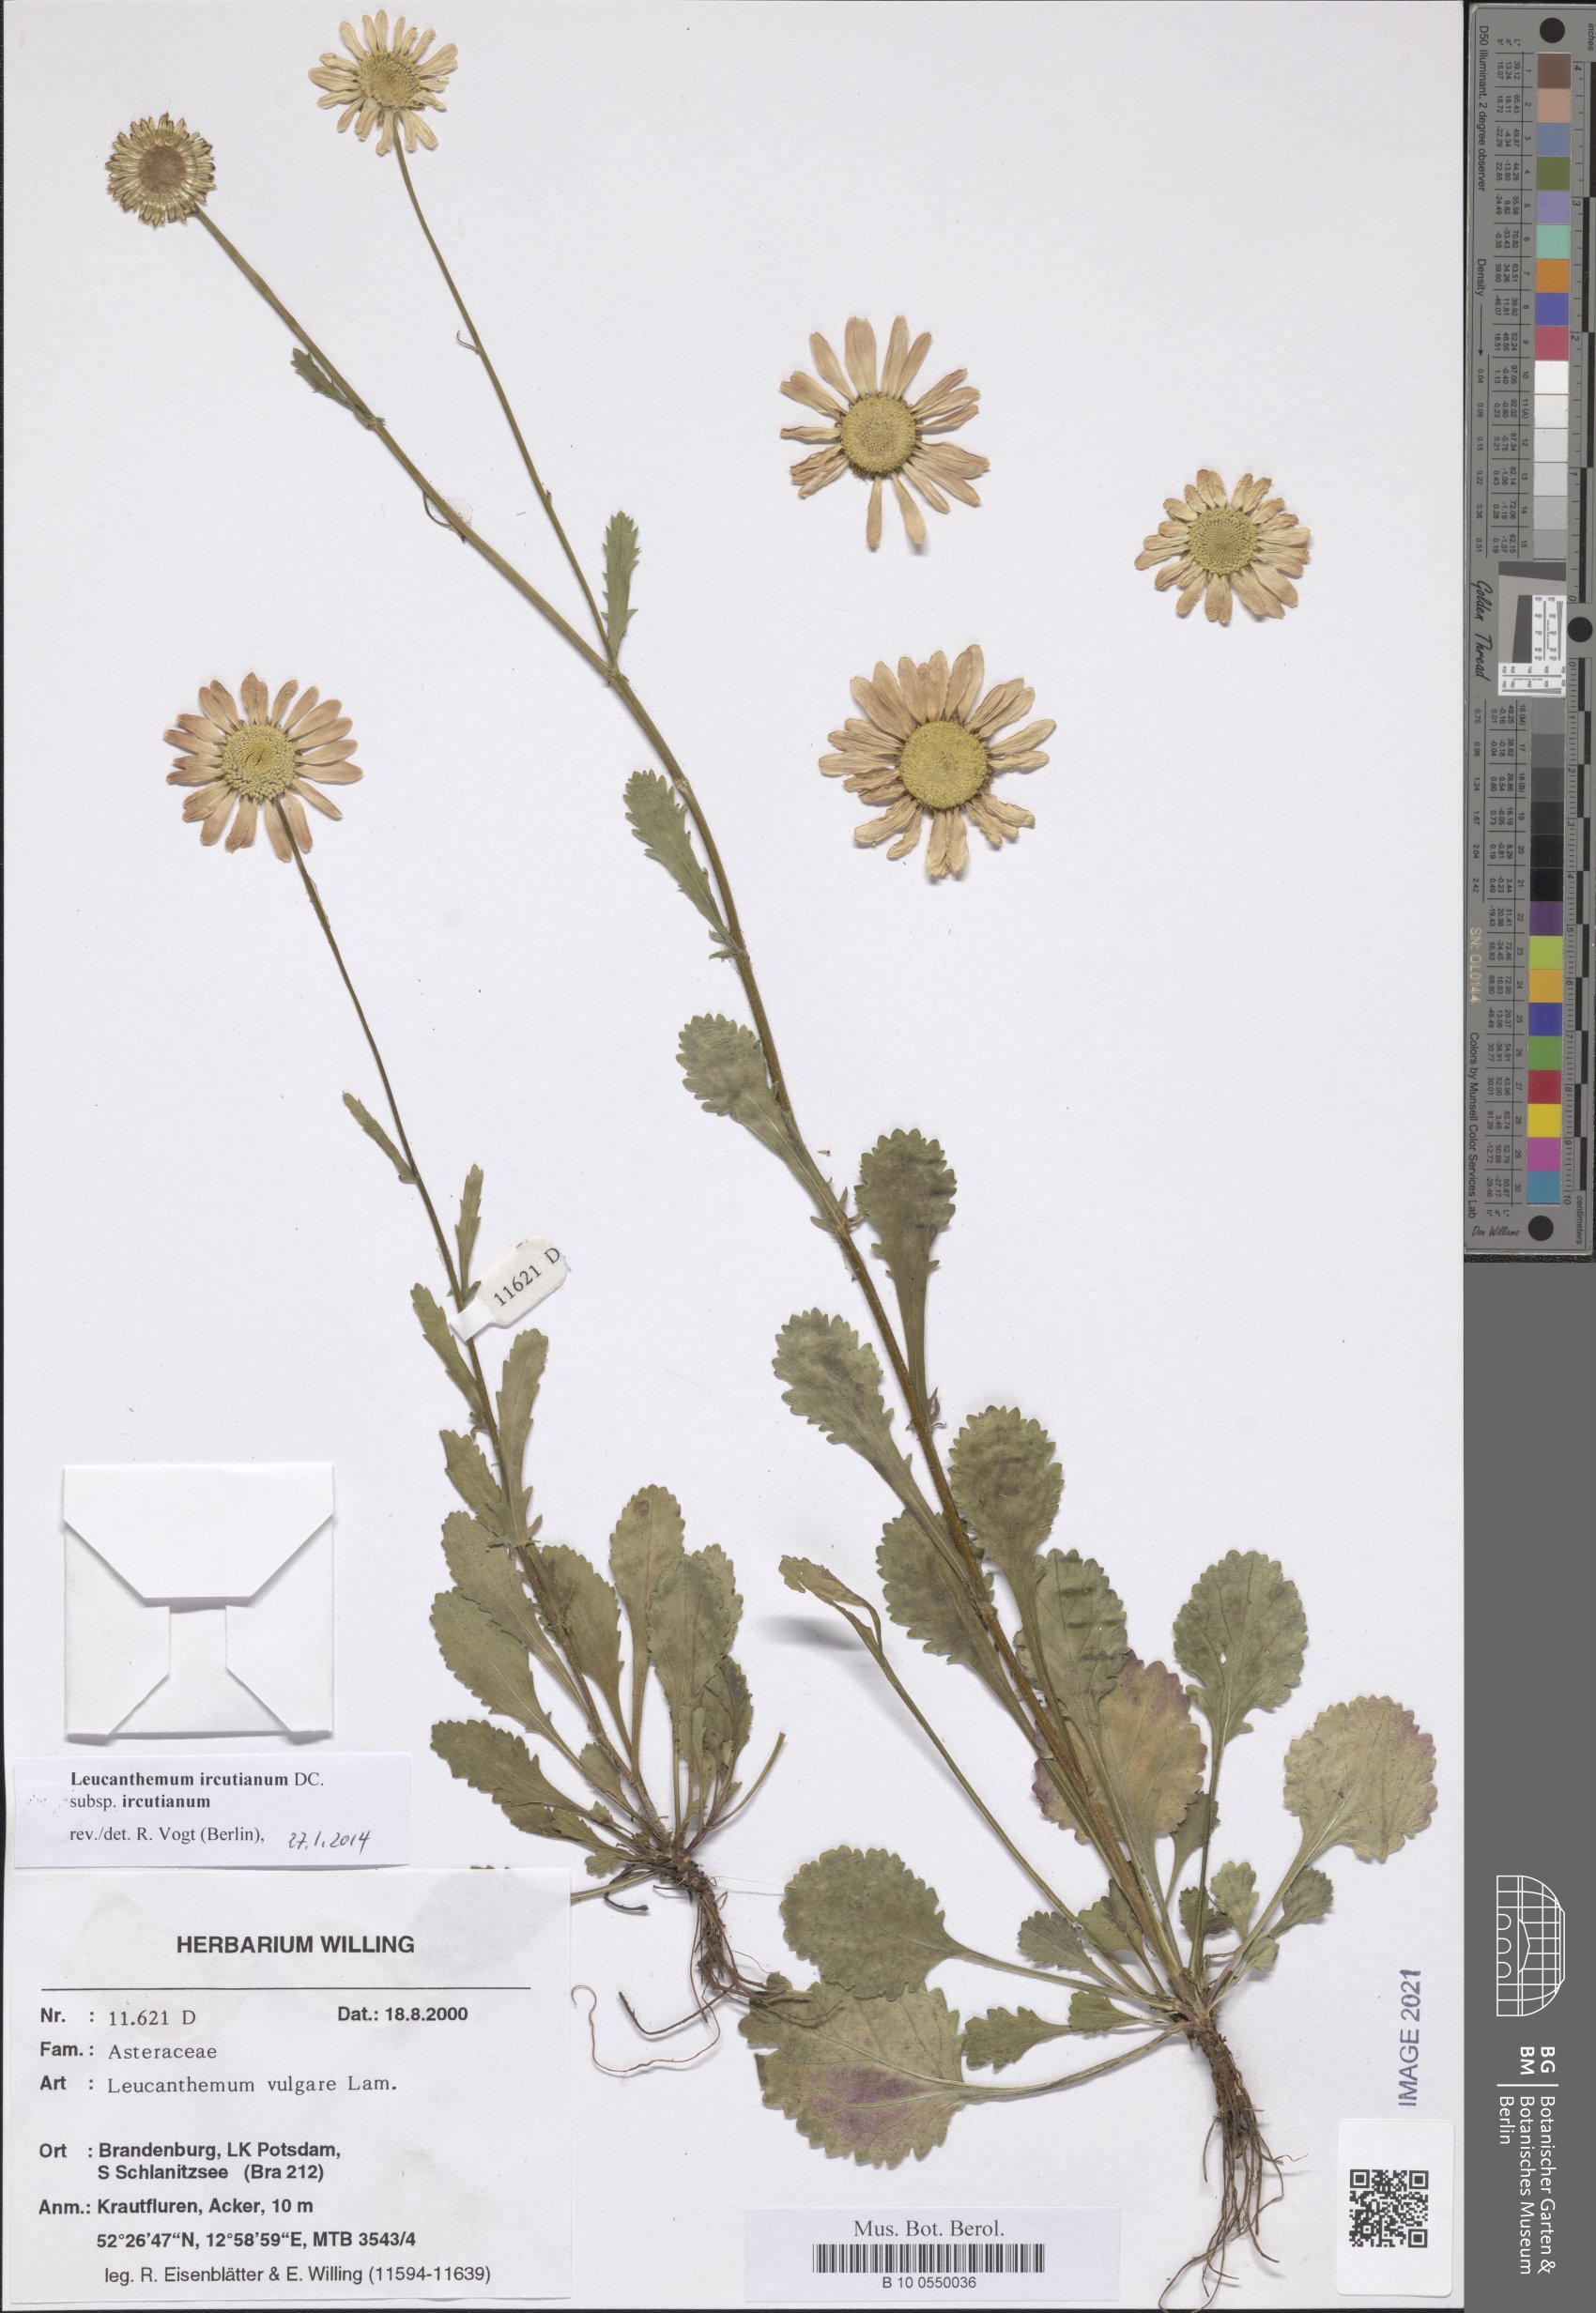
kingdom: Plantae
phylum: Tracheophyta
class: Magnoliopsida
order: Asterales
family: Asteraceae
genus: Leucanthemum
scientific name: Leucanthemum ircutianum
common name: Daisy
